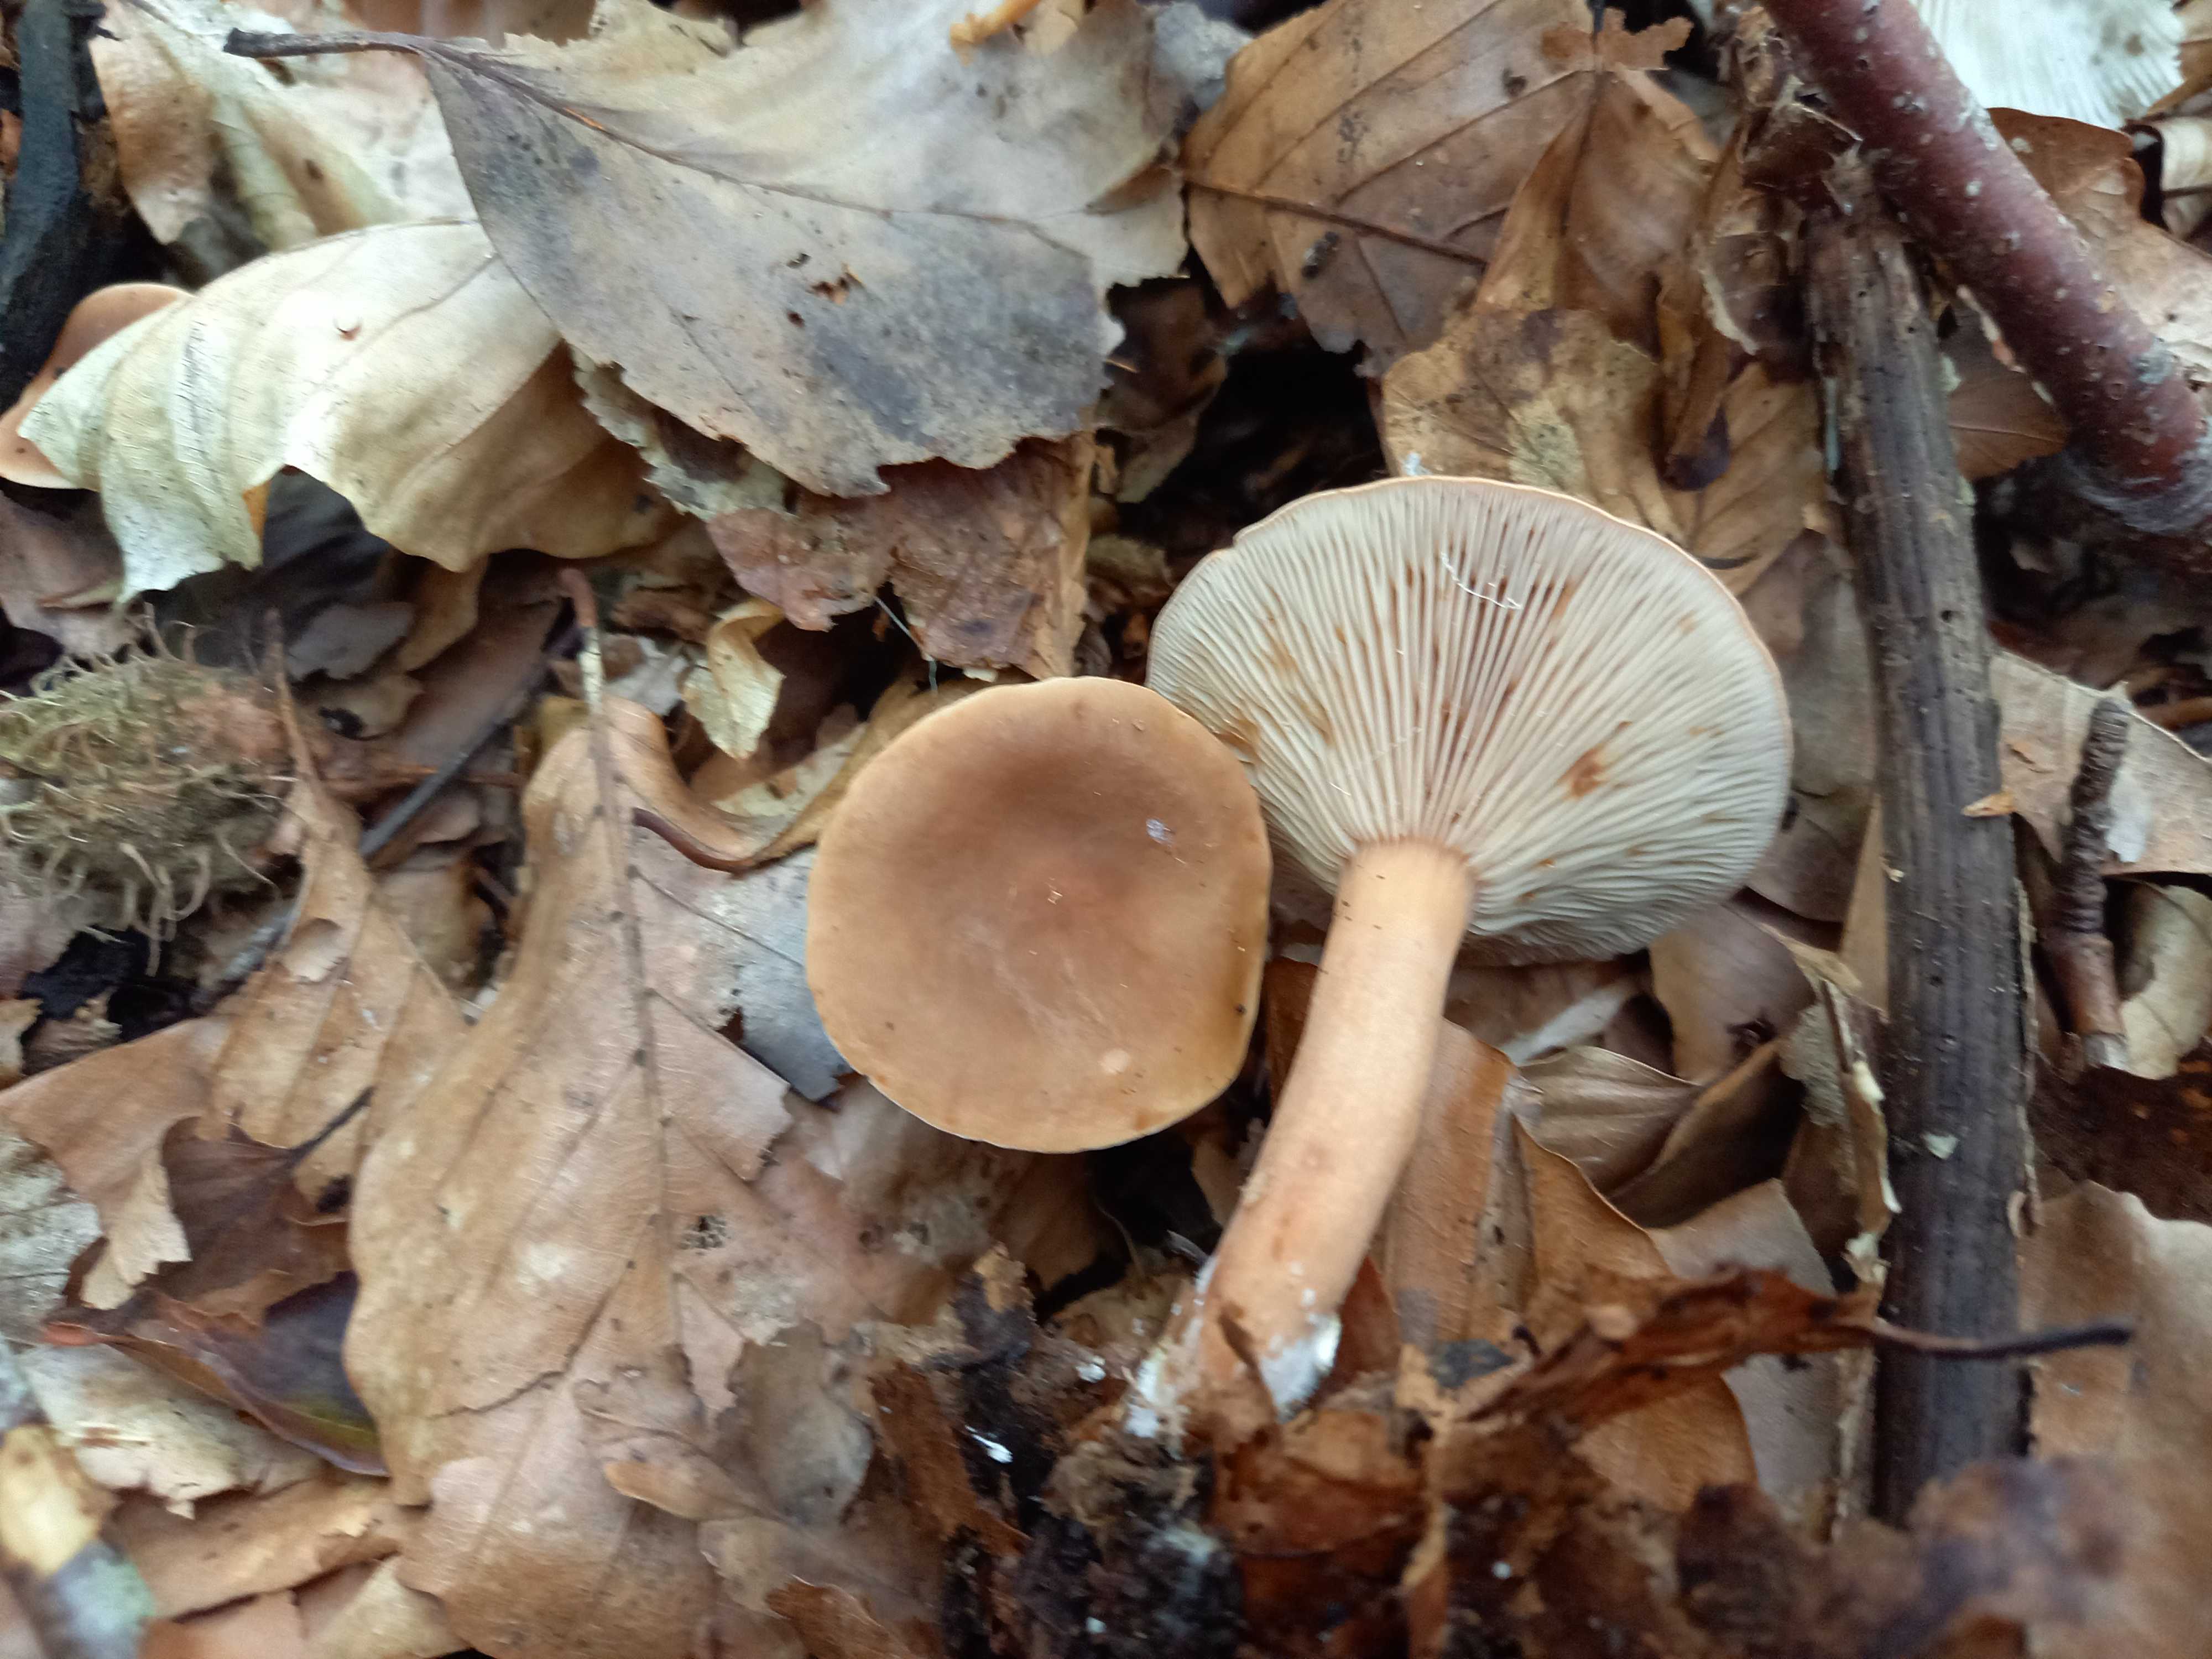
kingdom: Fungi
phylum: Basidiomycota
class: Agaricomycetes
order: Russulales
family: Russulaceae
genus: Lactarius
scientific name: Lactarius subdulcis
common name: sødlig mælkehat
